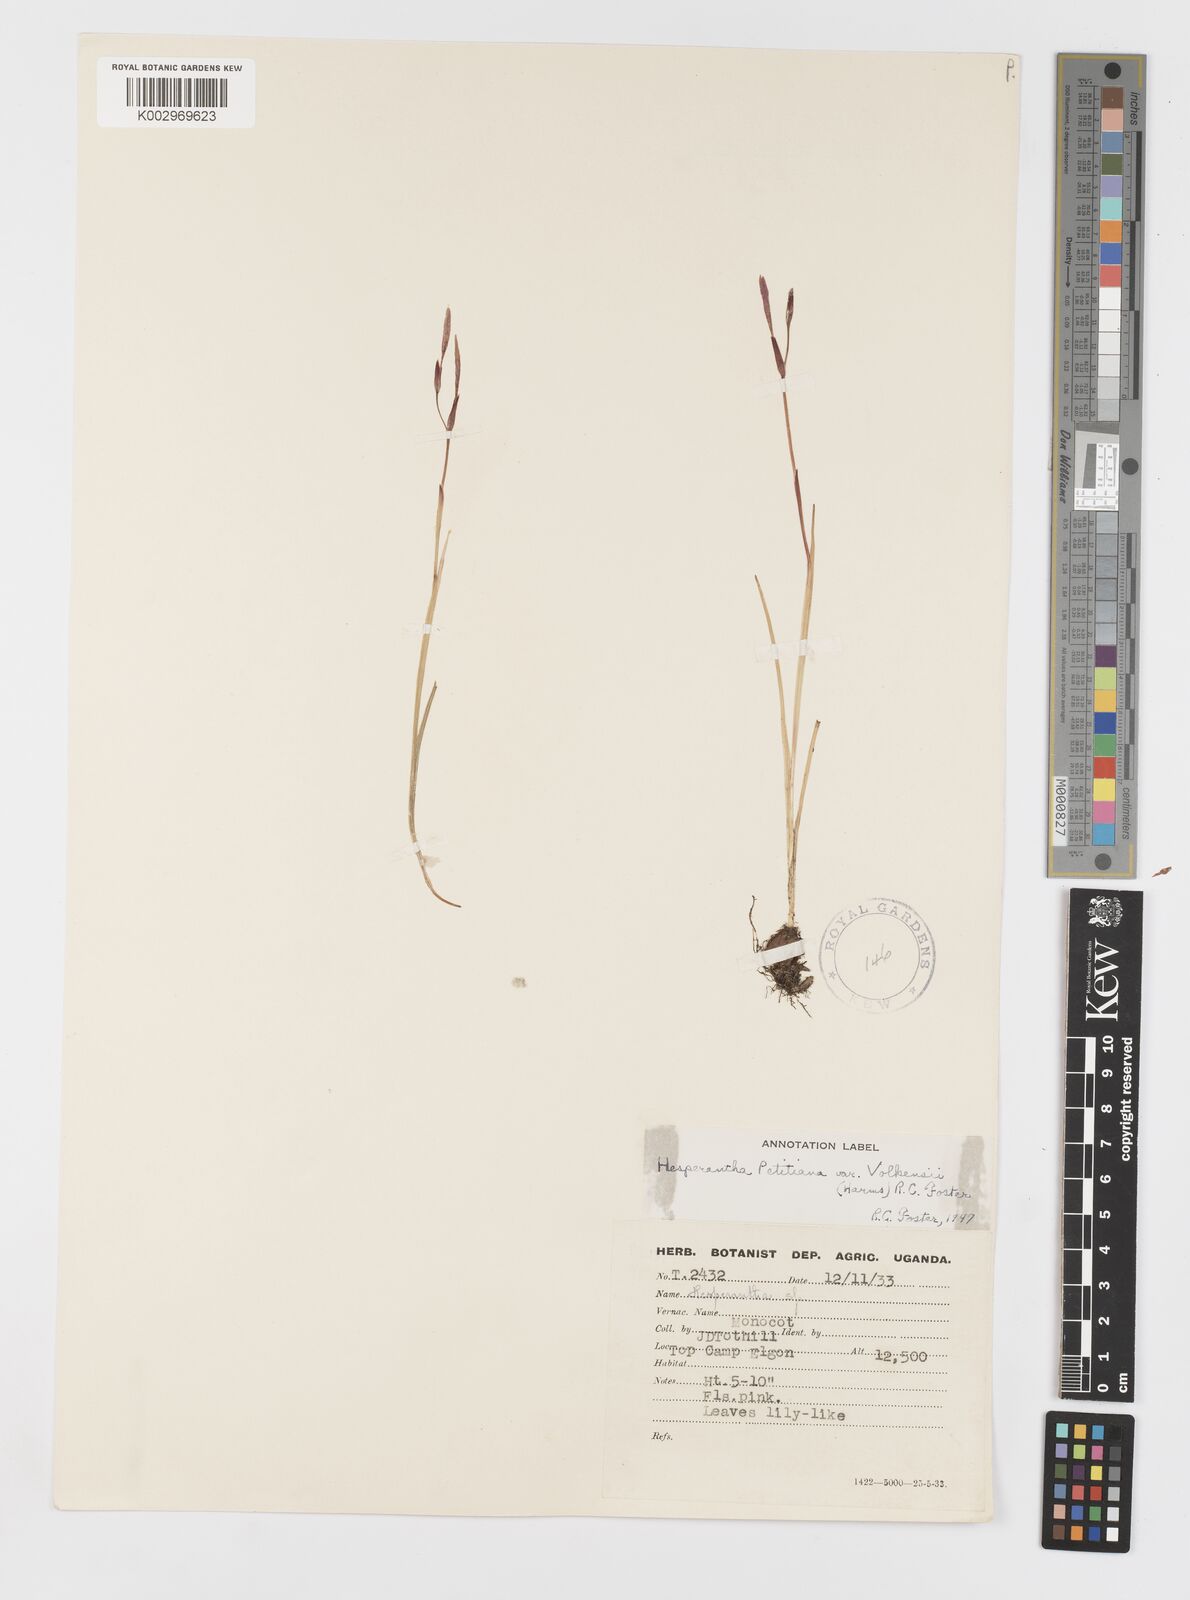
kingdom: Plantae
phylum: Tracheophyta
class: Liliopsida
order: Asparagales
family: Iridaceae
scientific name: Iridaceae
